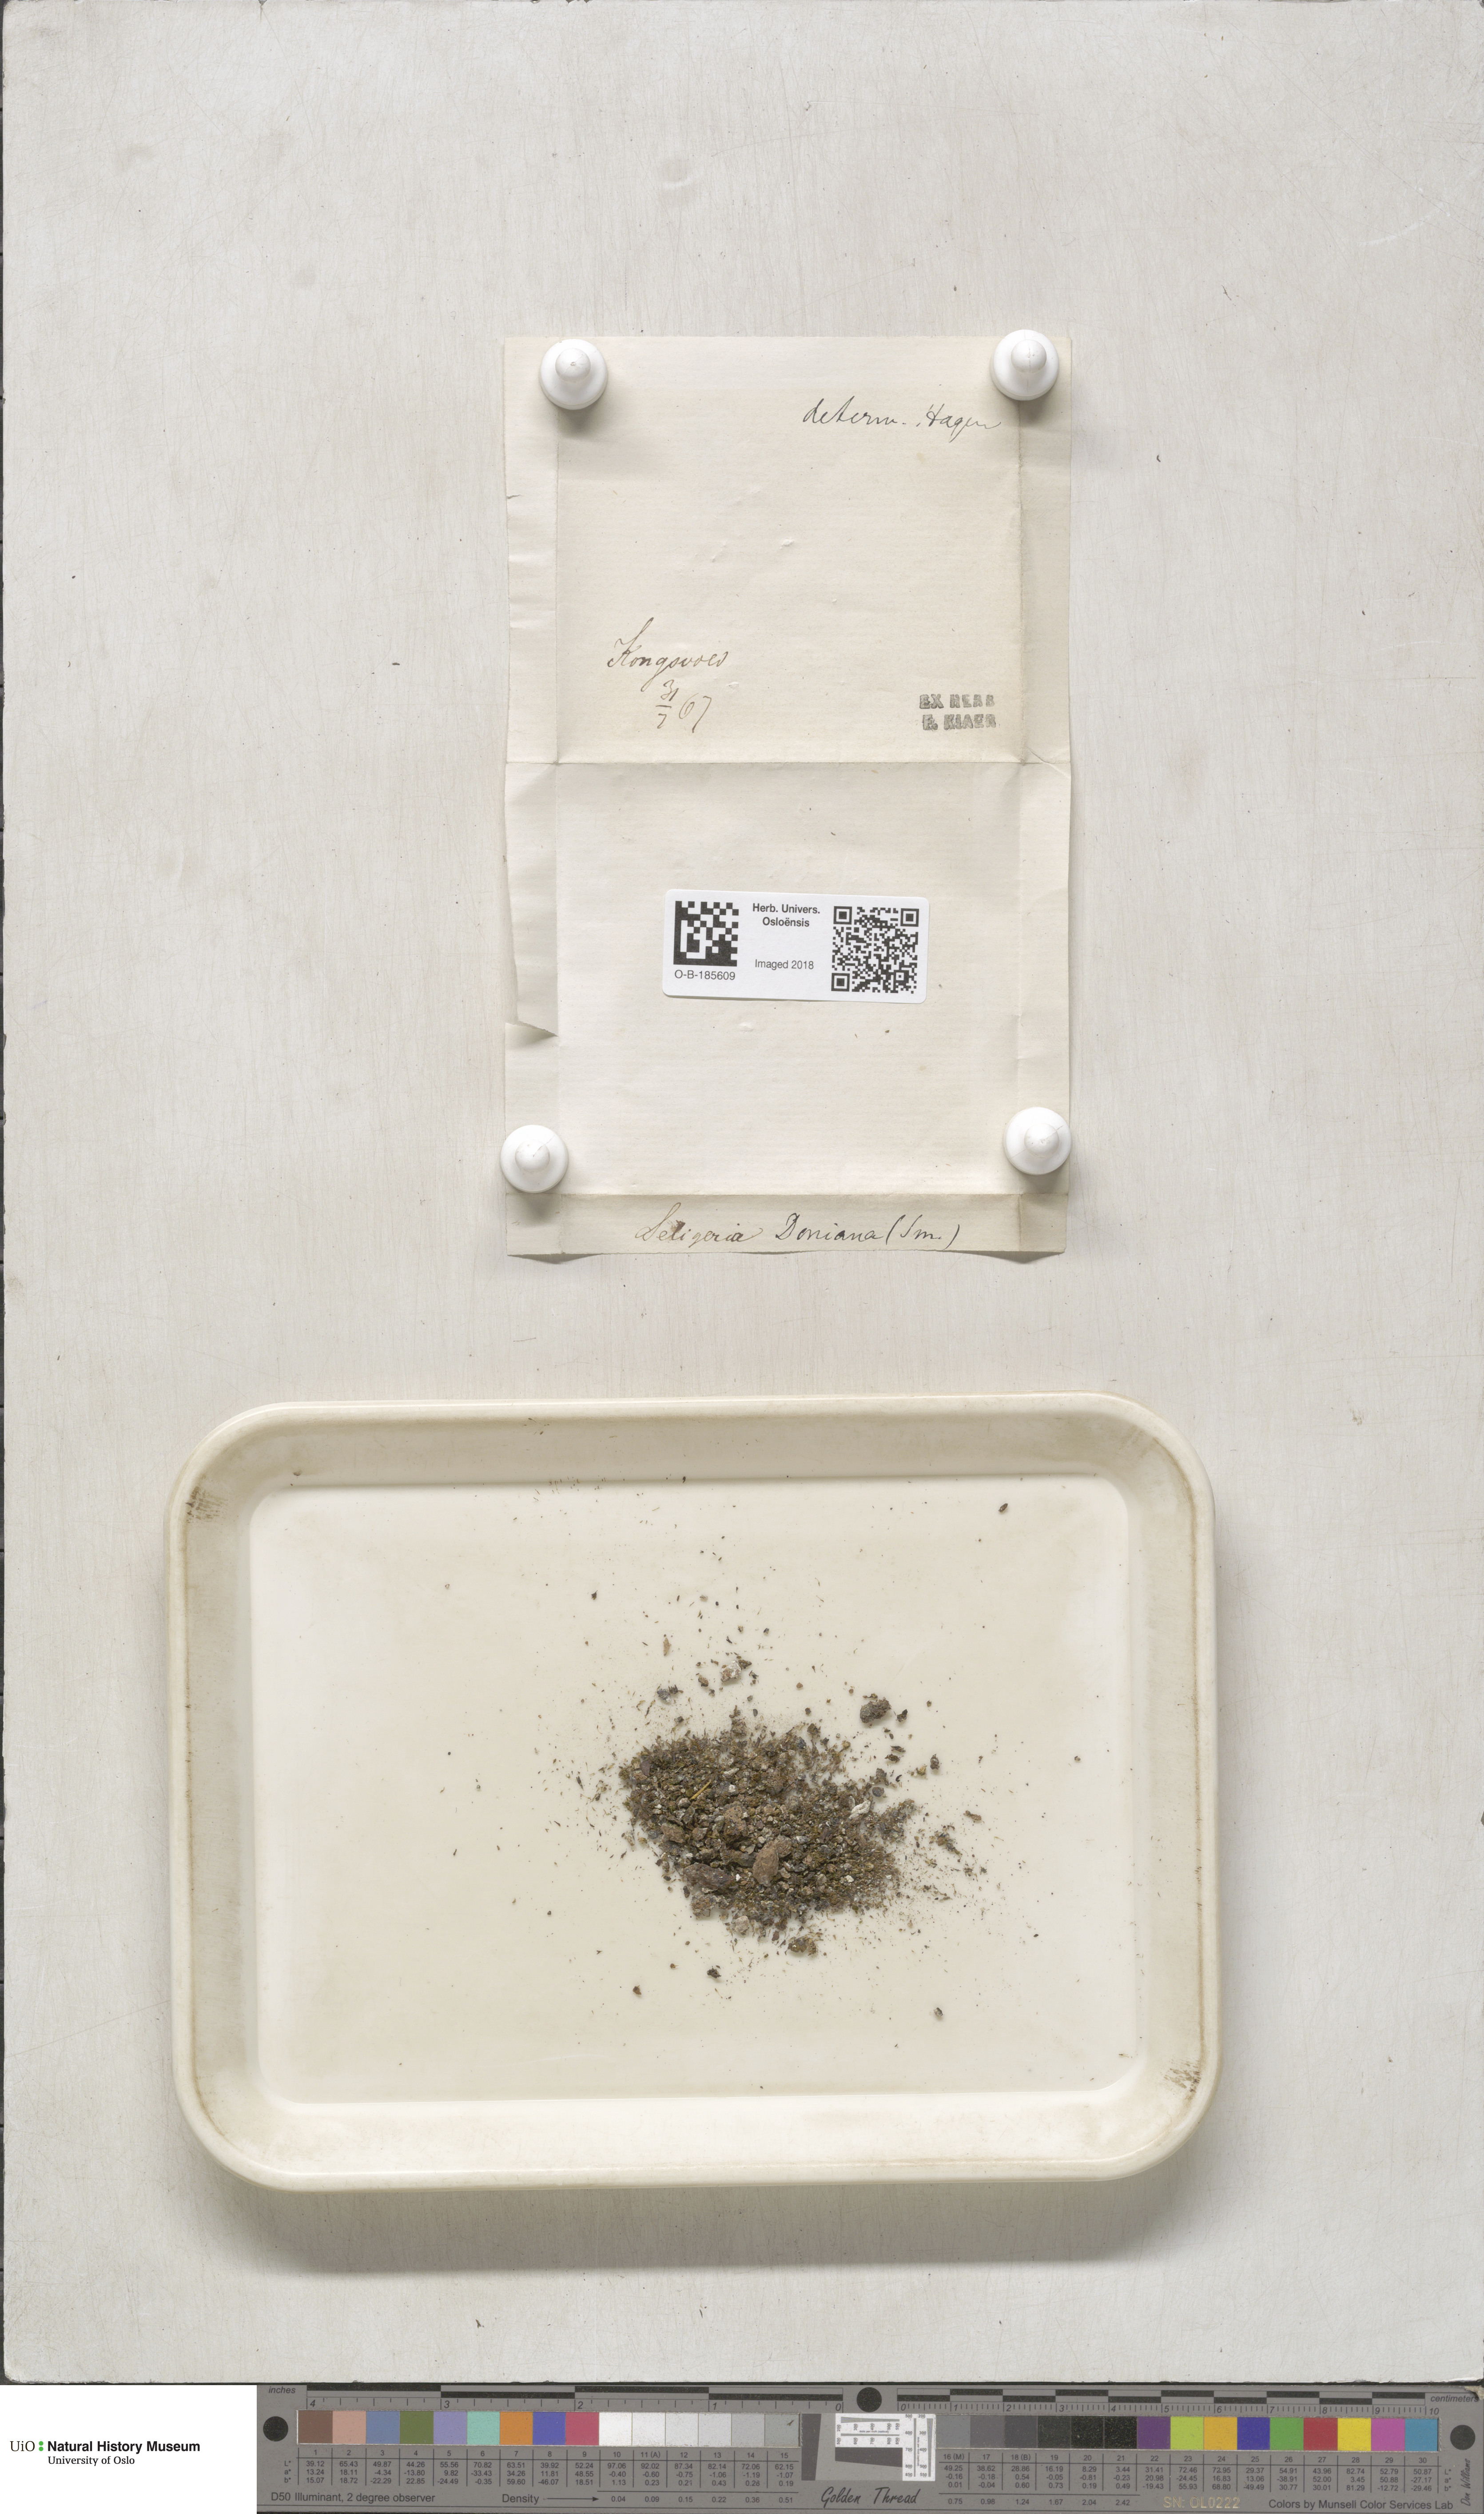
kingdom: Plantae
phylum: Bryophyta
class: Bryopsida
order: Grimmiales
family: Seligeriaceae
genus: Seligeria
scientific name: Seligeria donniana
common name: Donn's bristle moss
